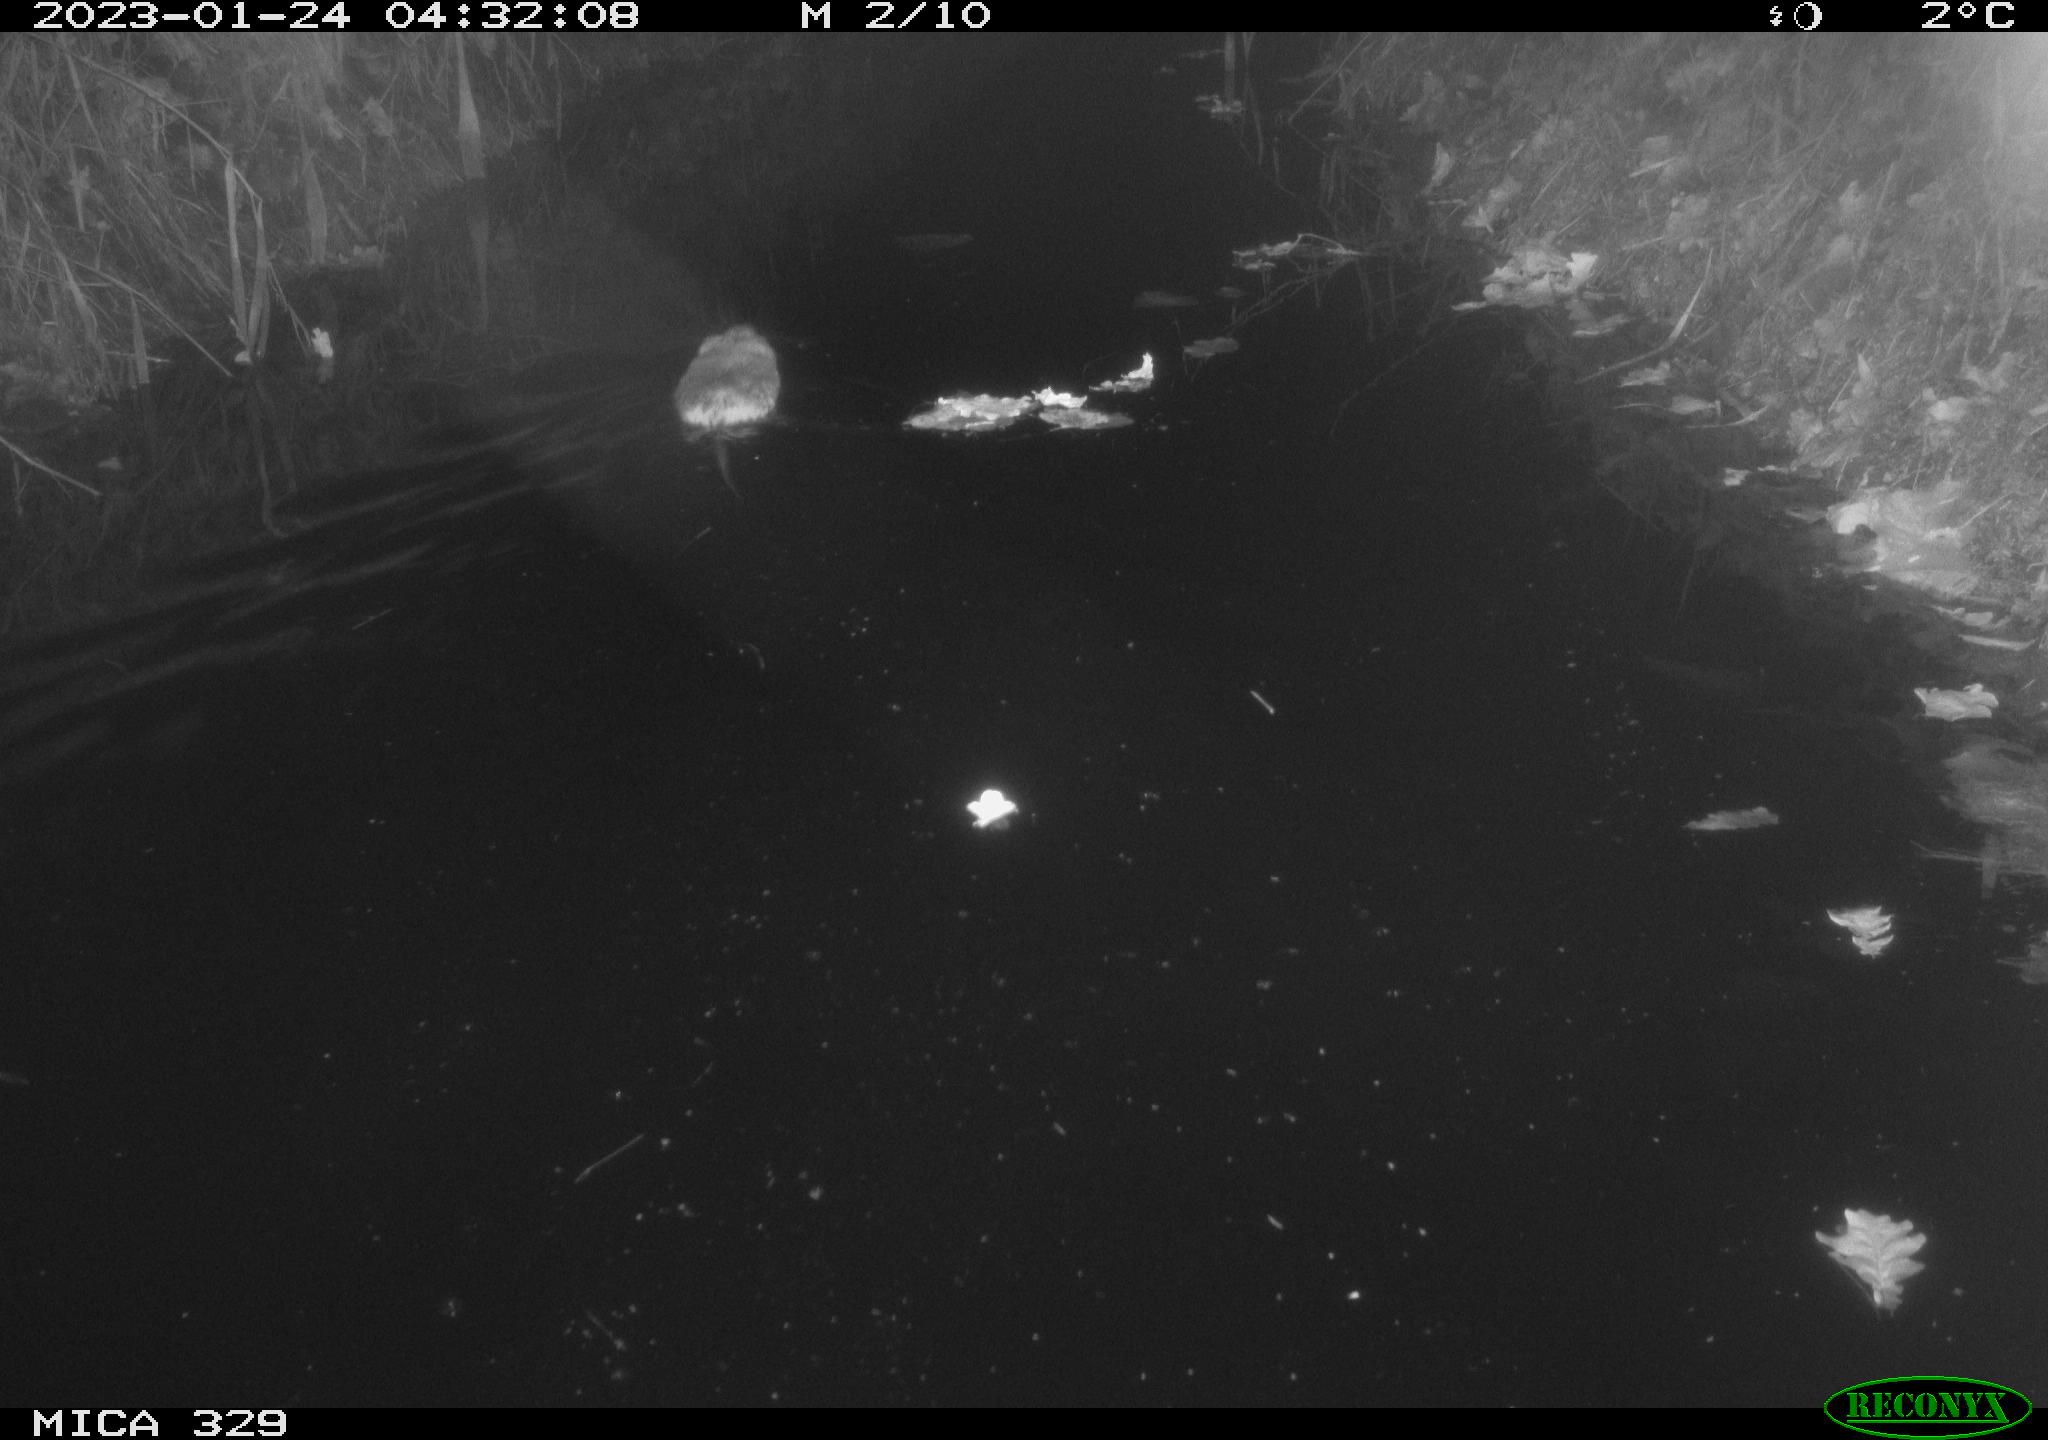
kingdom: Animalia
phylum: Chordata
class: Mammalia
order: Rodentia
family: Cricetidae
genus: Ondatra
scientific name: Ondatra zibethicus
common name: Muskrat
